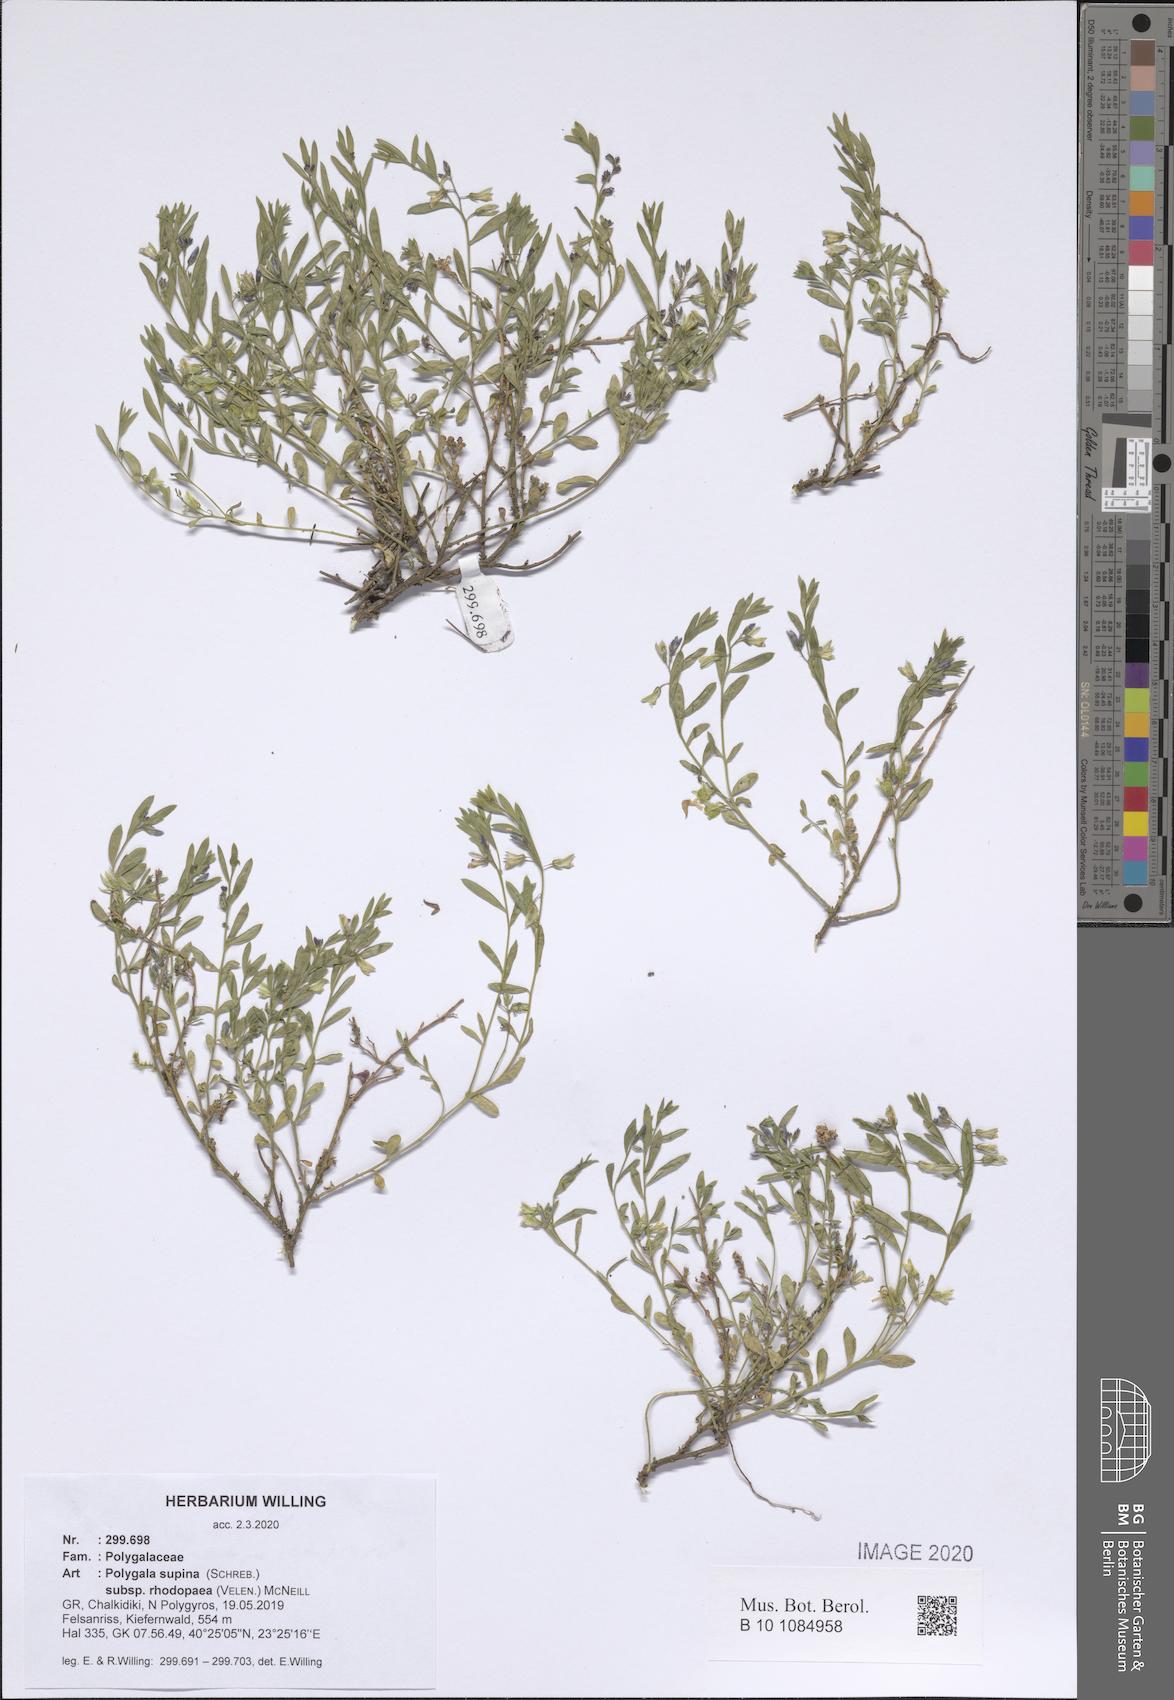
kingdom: Plantae
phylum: Tracheophyta
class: Magnoliopsida
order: Fabales
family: Polygalaceae
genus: Polygala
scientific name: Polygala supina
